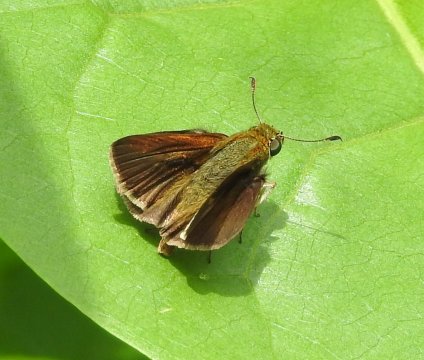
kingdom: Animalia
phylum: Arthropoda
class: Insecta
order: Lepidoptera
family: Hesperiidae
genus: Euphyes
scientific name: Euphyes vestris
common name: Dun Skipper
